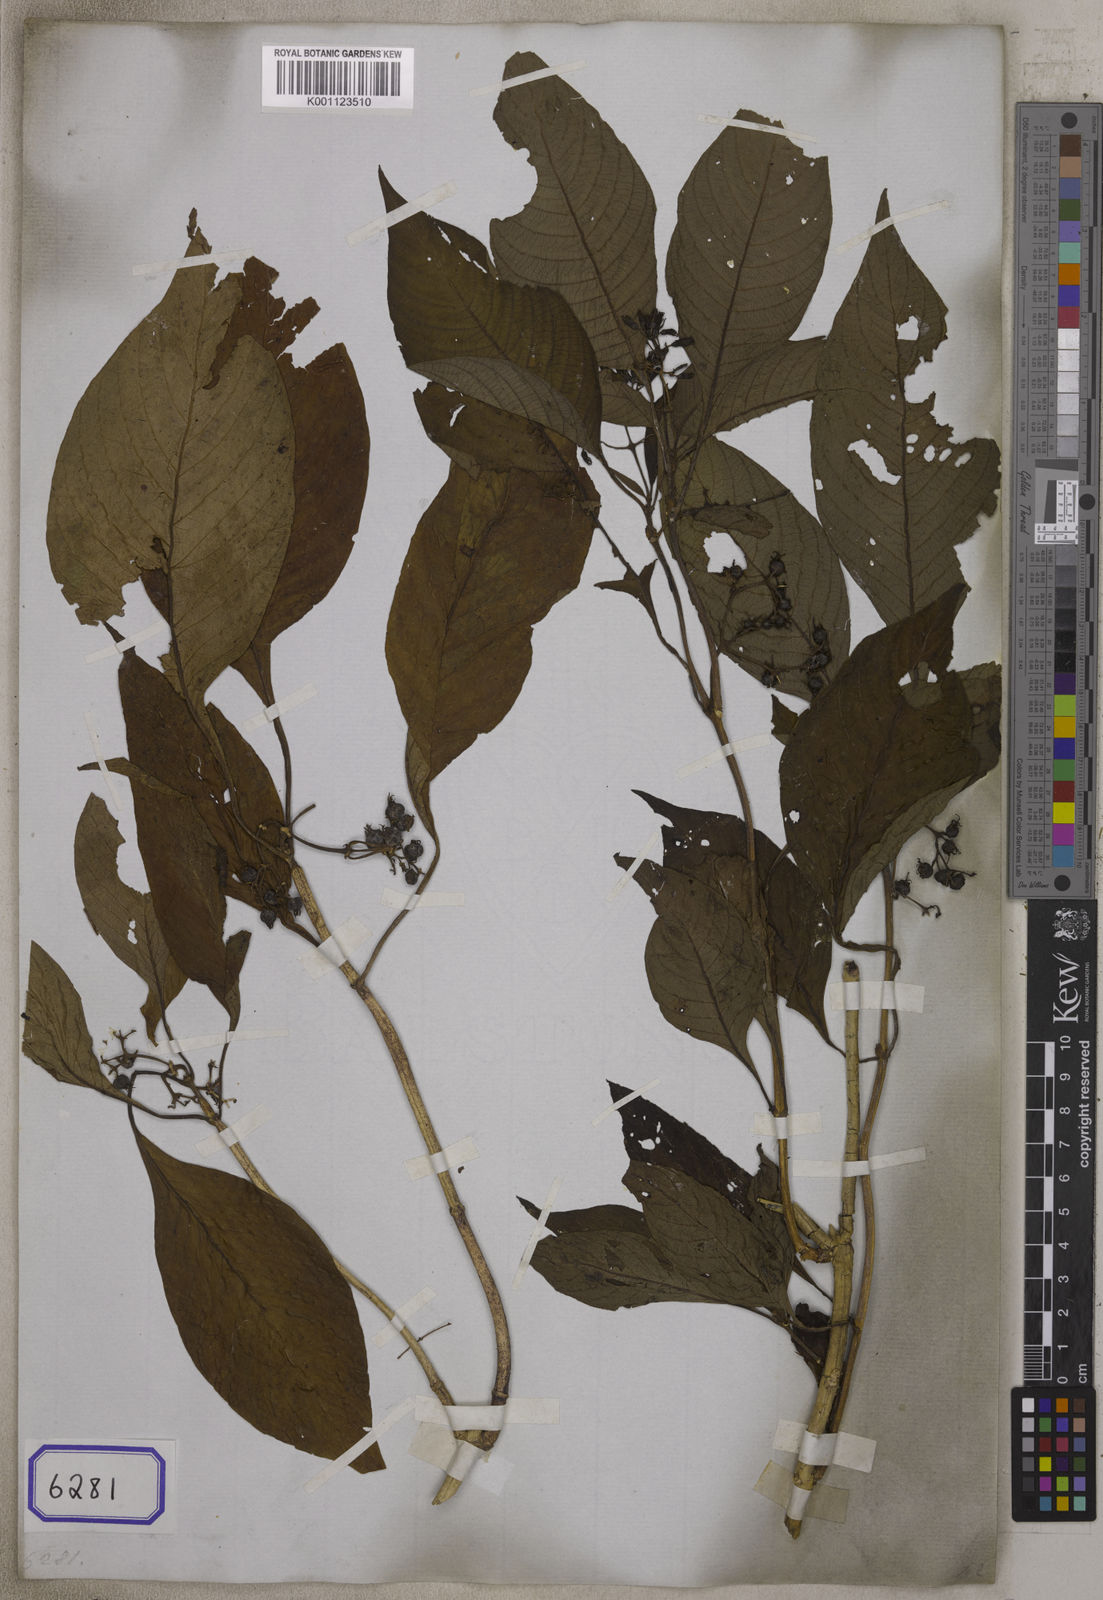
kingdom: Plantae
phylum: Tracheophyta
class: Magnoliopsida
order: Gentianales
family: Rubiaceae
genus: Adenosacme
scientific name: Adenosacme
